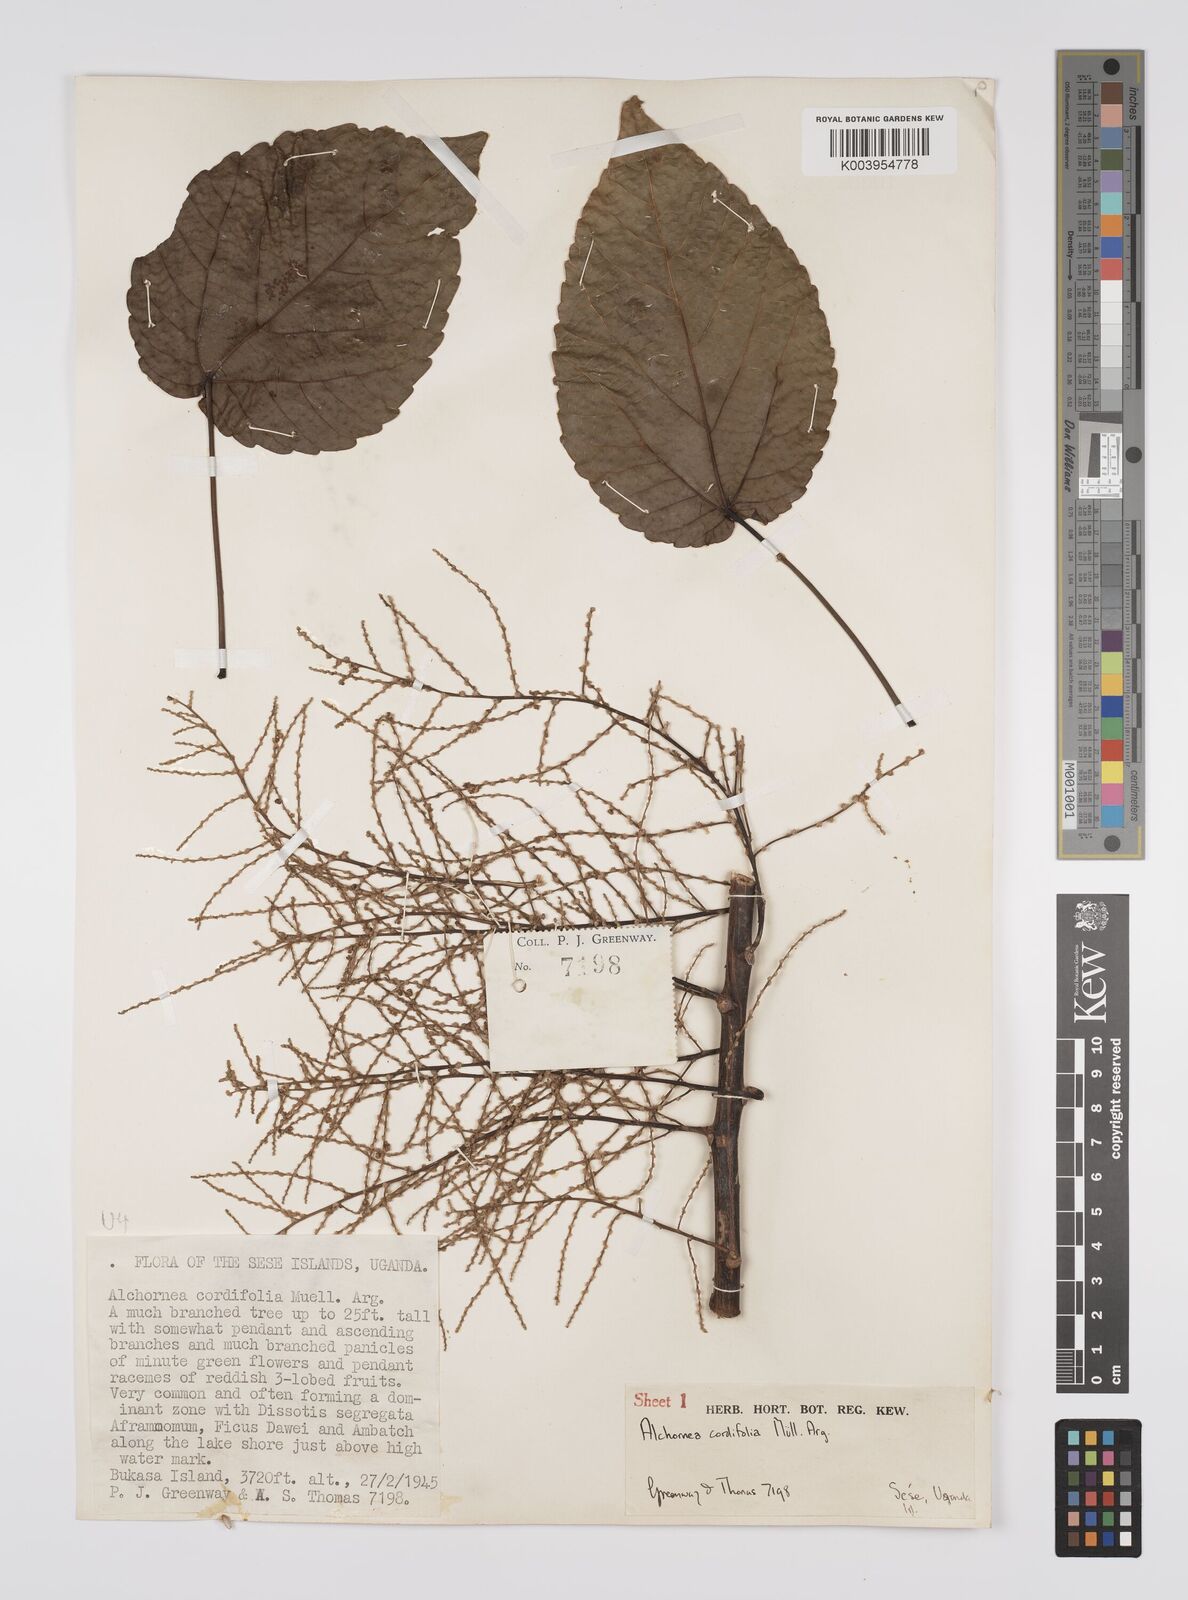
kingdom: Plantae
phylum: Tracheophyta
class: Magnoliopsida
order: Malpighiales
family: Euphorbiaceae
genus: Alchornea
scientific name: Alchornea cordifolia
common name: Christmasbush
